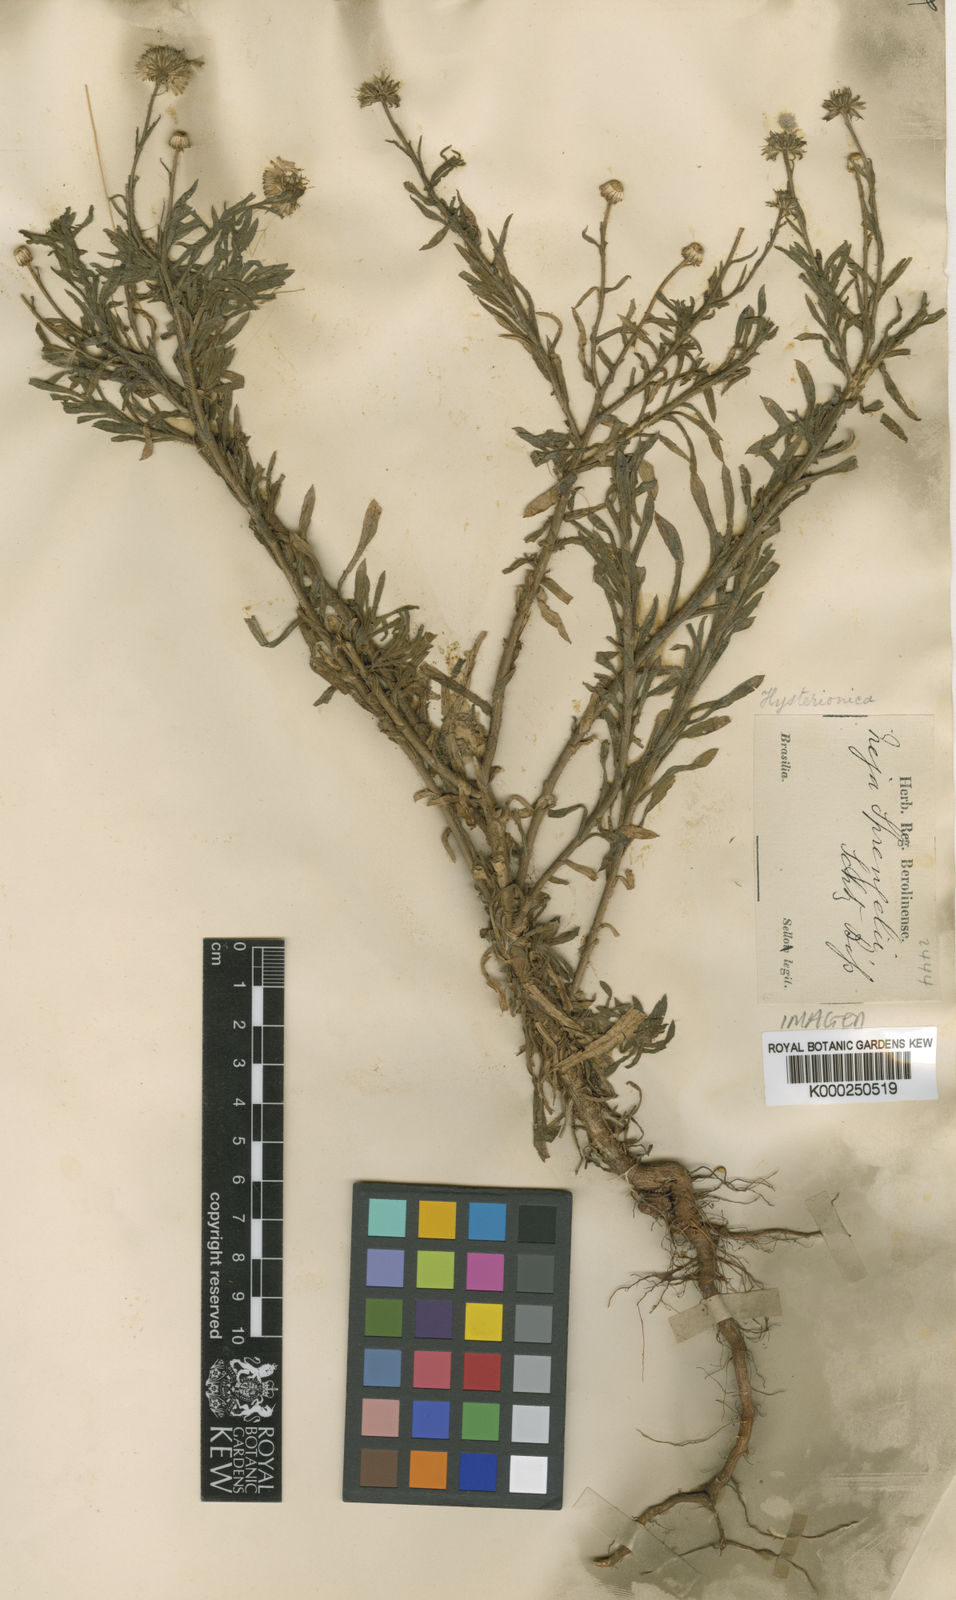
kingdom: Plantae
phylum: Tracheophyta
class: Magnoliopsida
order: Asterales
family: Asteraceae
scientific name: Asteraceae
